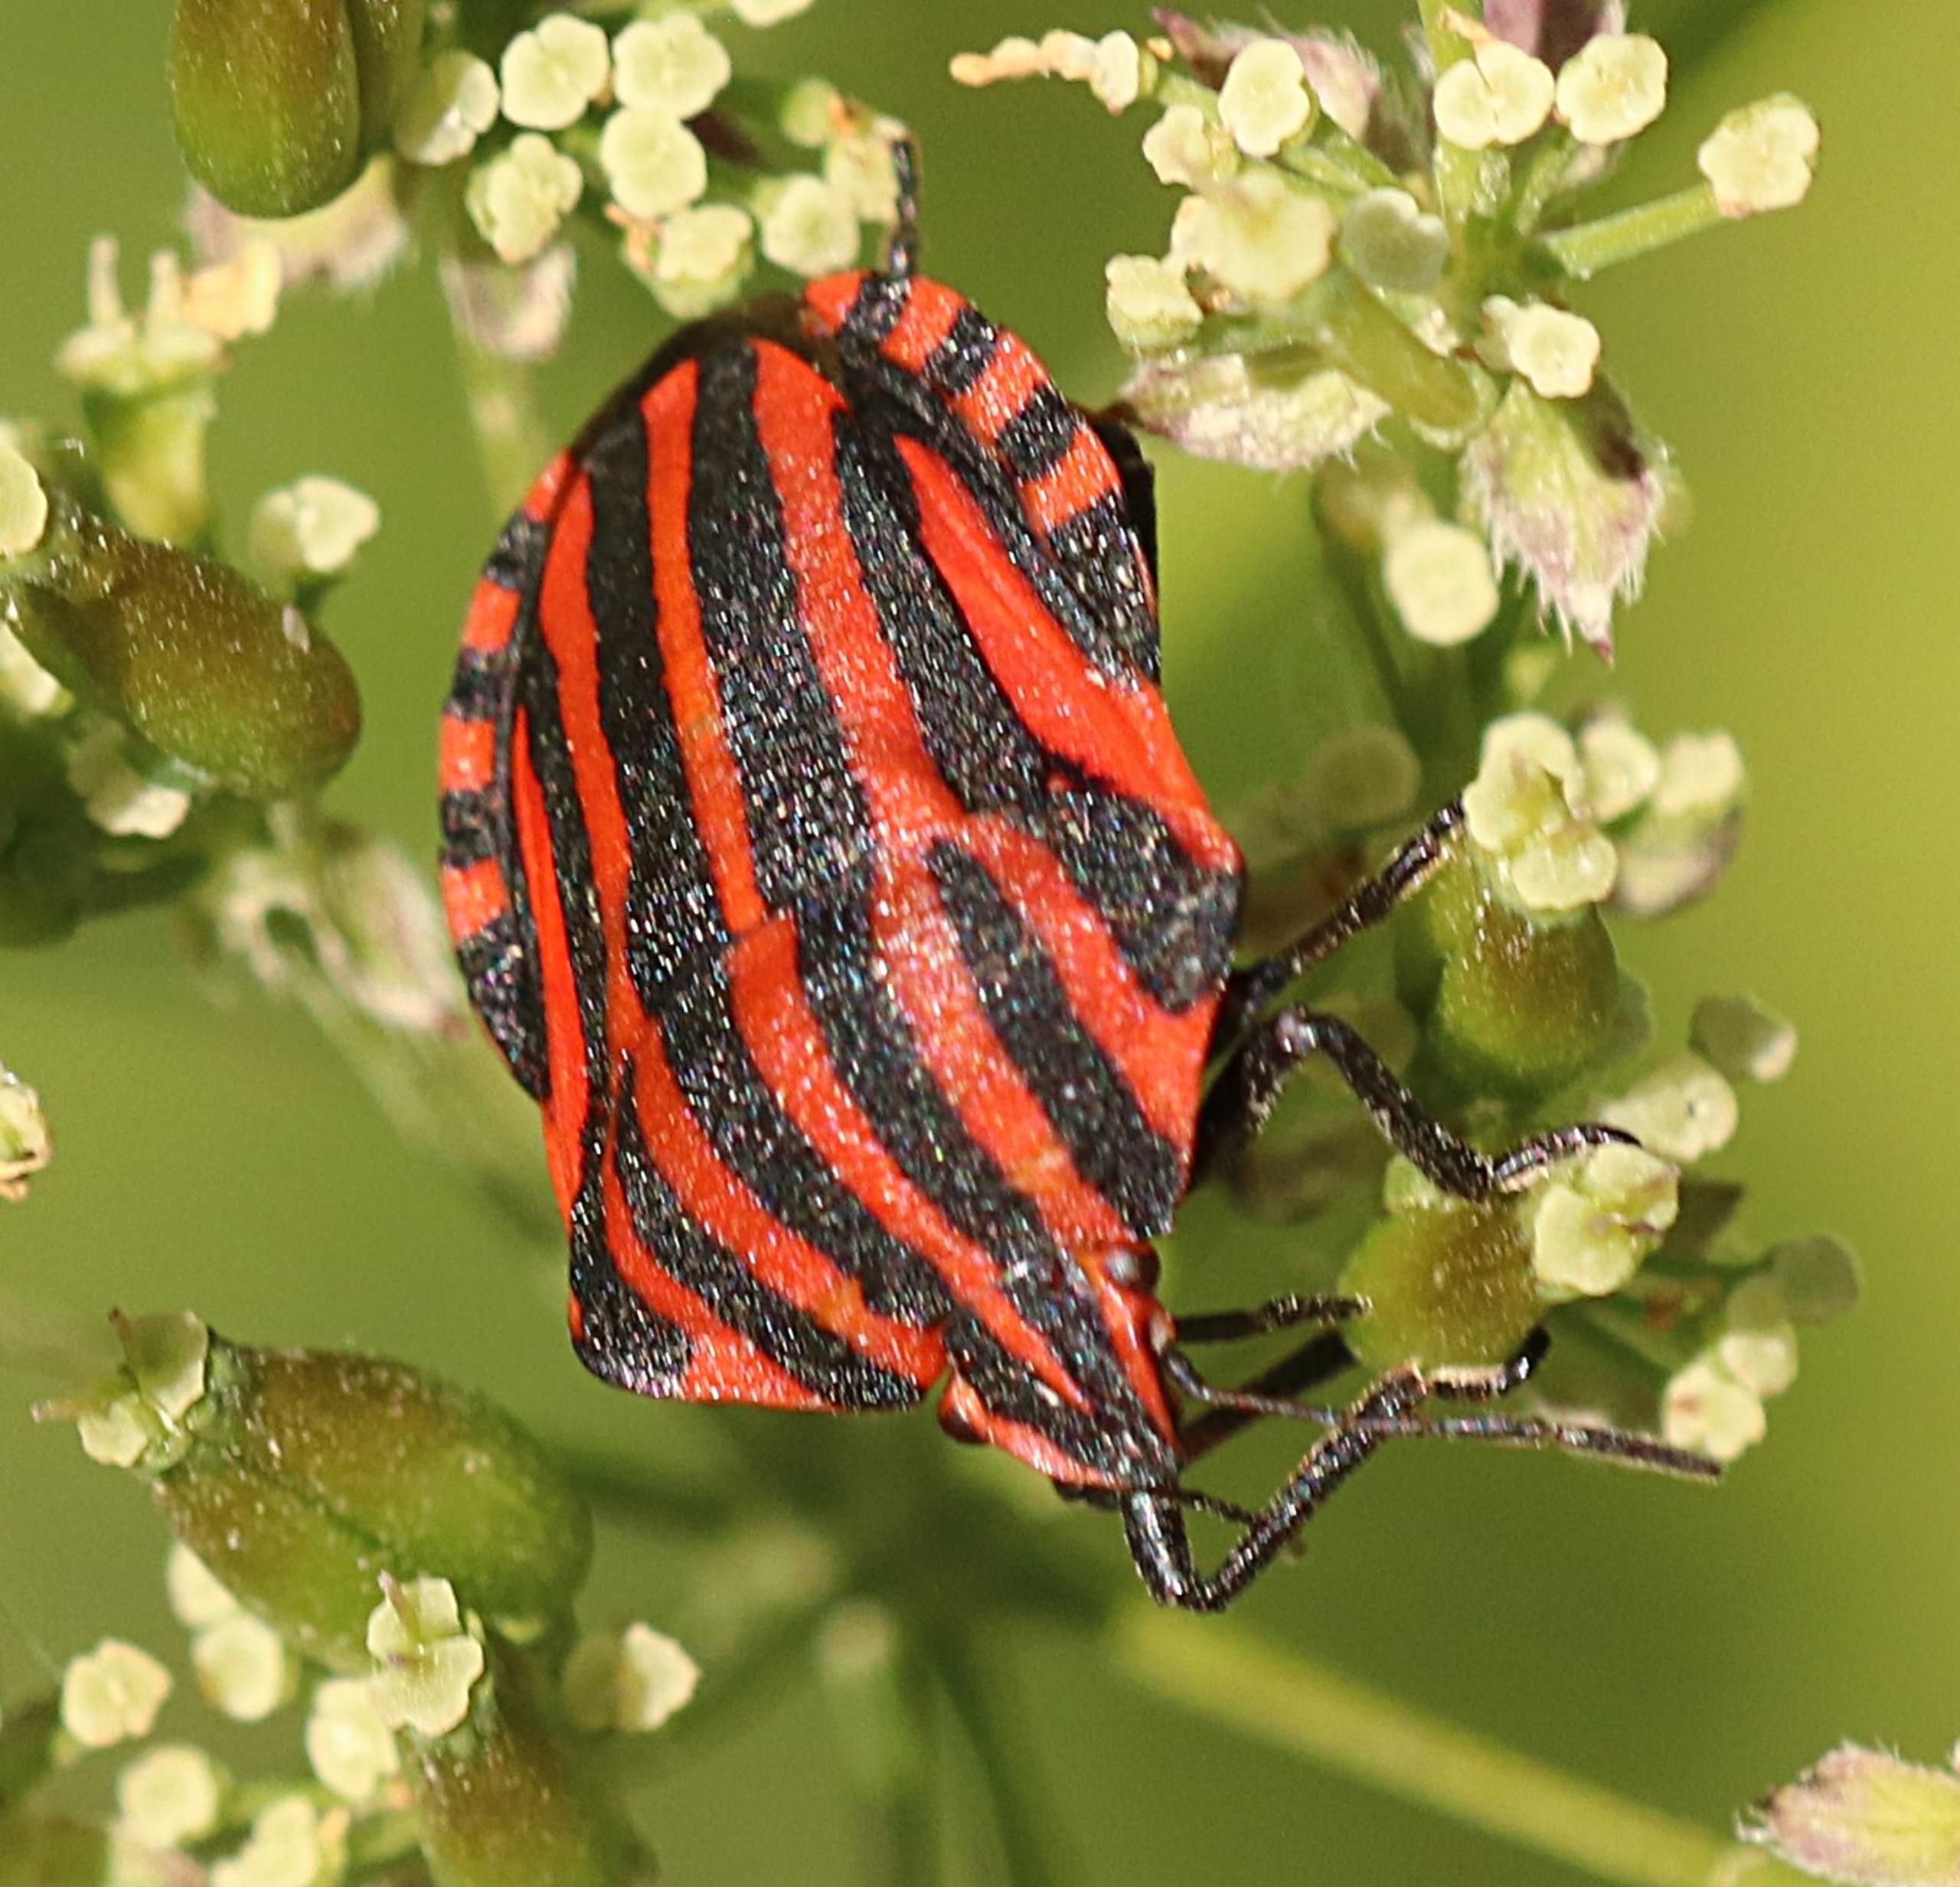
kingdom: Animalia
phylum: Arthropoda
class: Insecta
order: Hemiptera
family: Pentatomidae
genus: Graphosoma
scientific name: Graphosoma italicum
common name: Stribetæge
